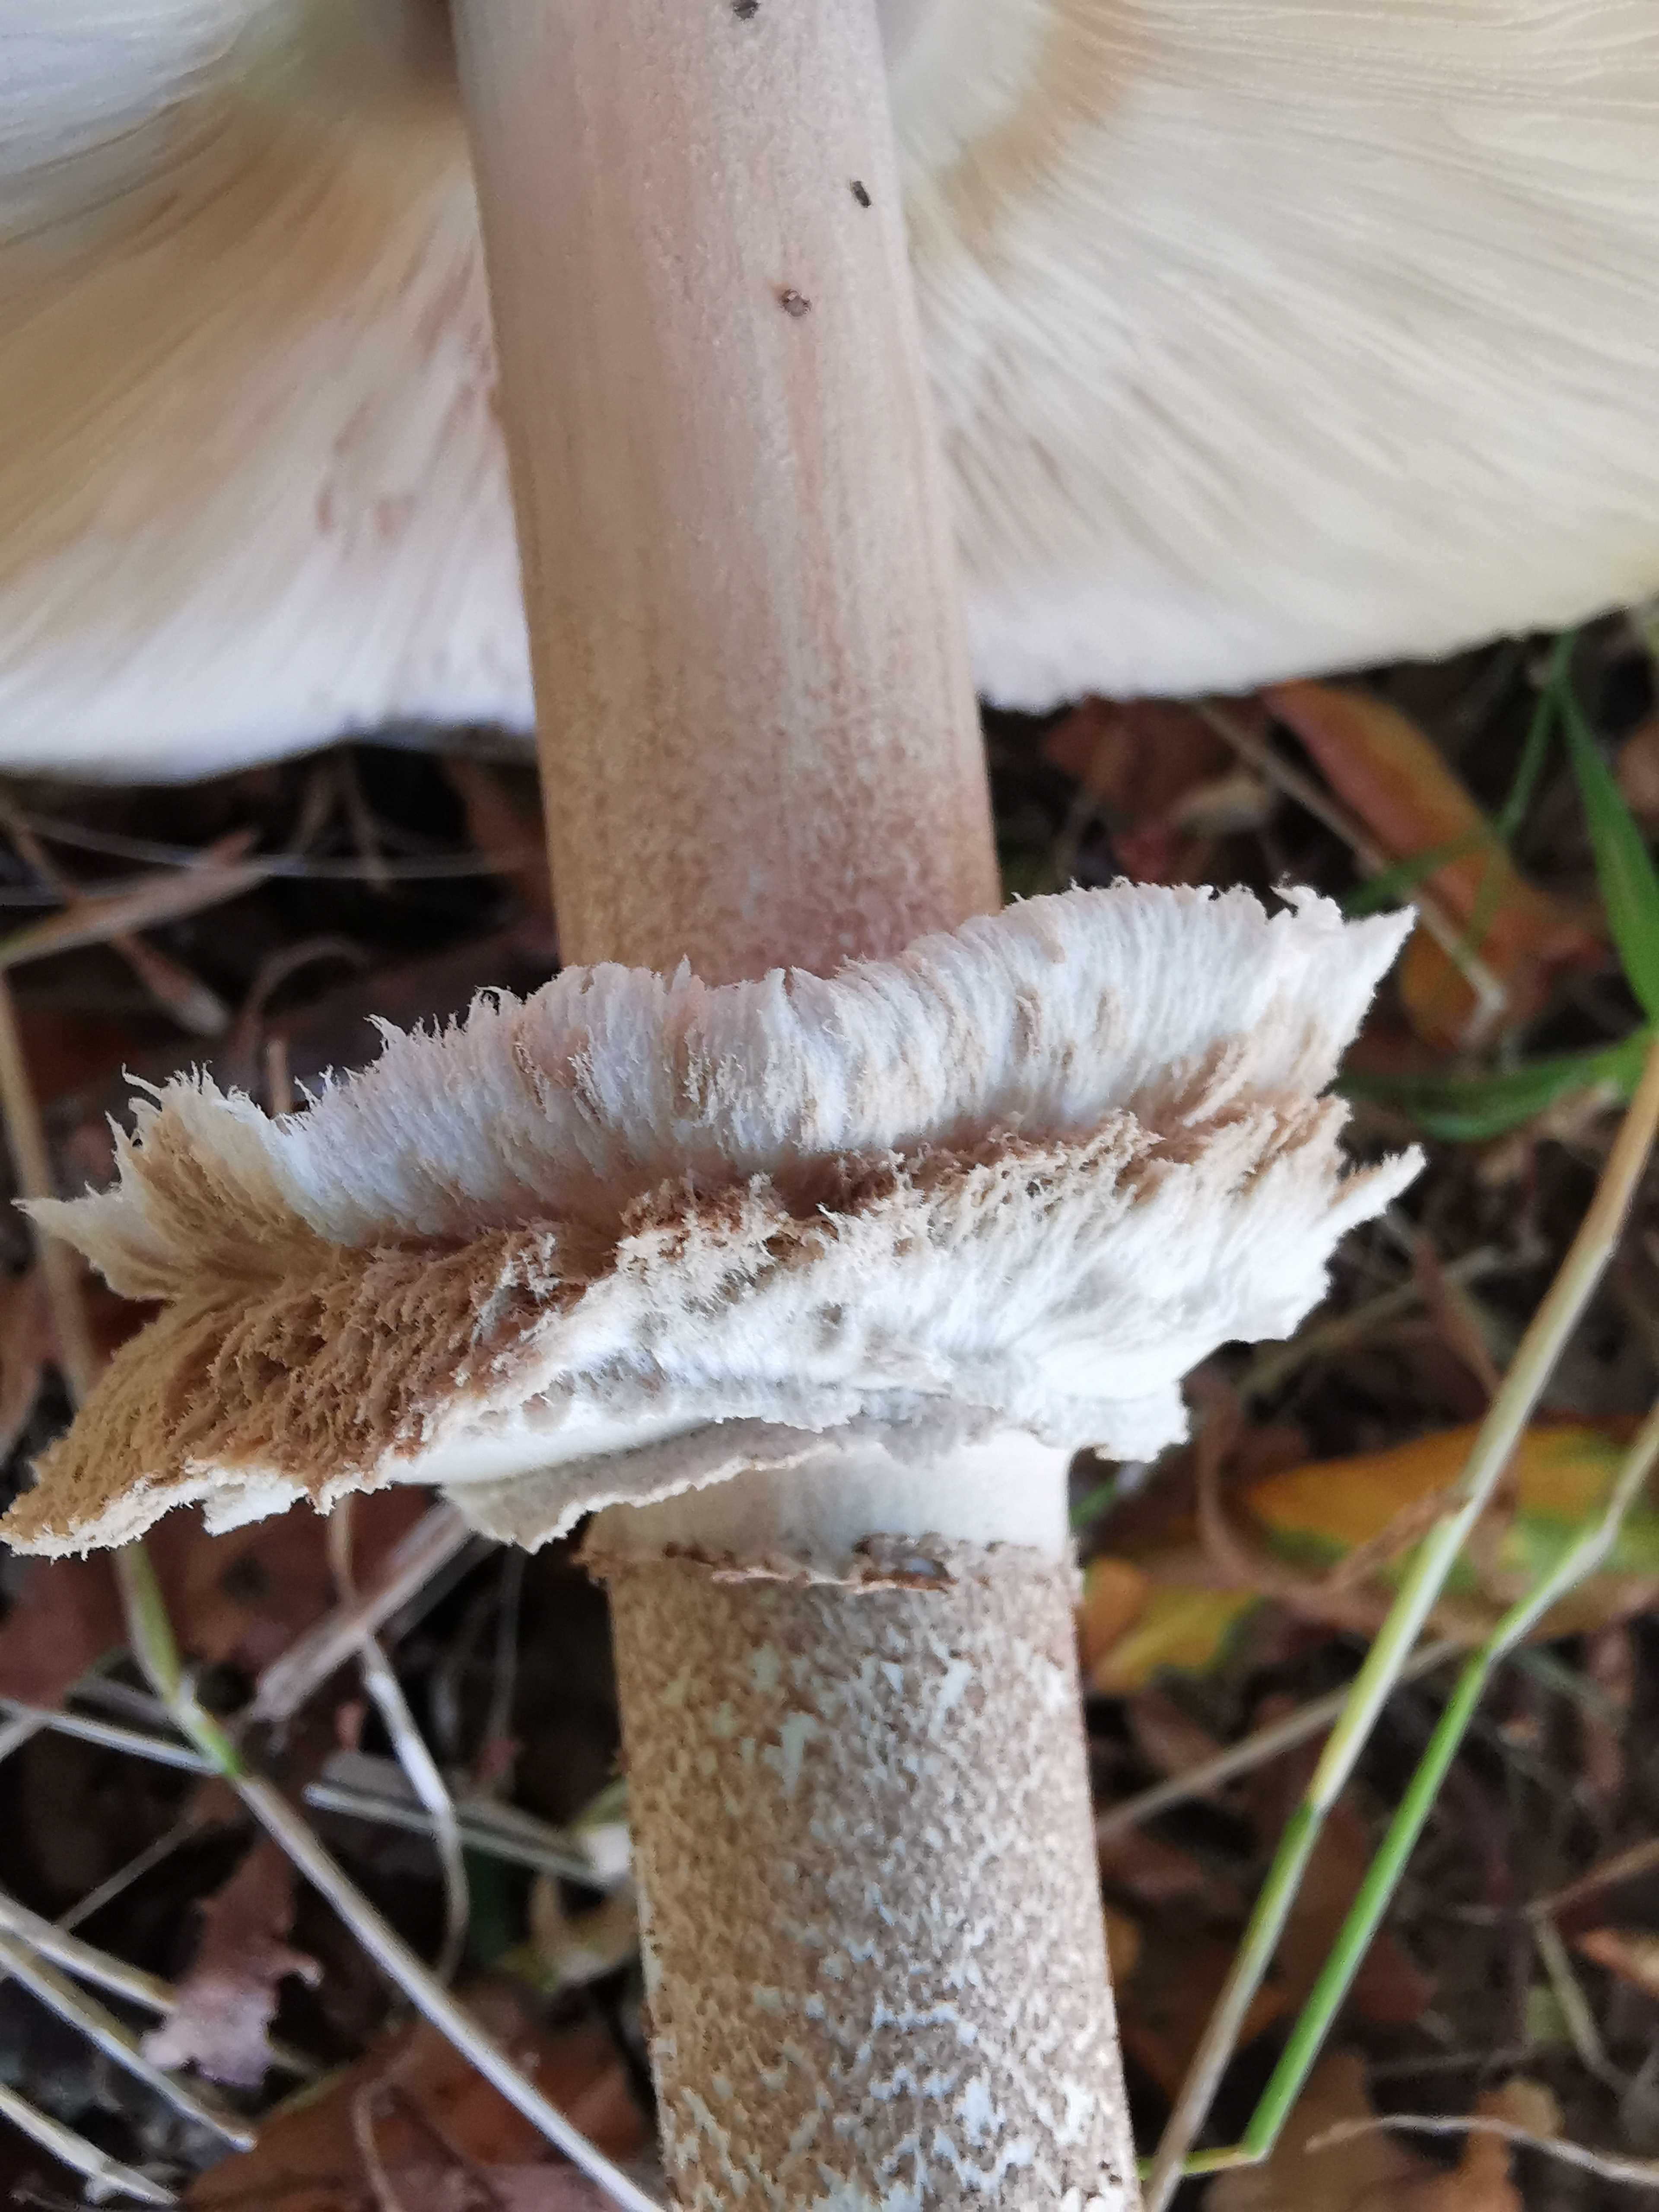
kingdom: Fungi
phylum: Basidiomycota
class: Agaricomycetes
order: Agaricales
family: Agaricaceae
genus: Macrolepiota
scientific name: Macrolepiota procera
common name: stor kæmpeparasolhat
